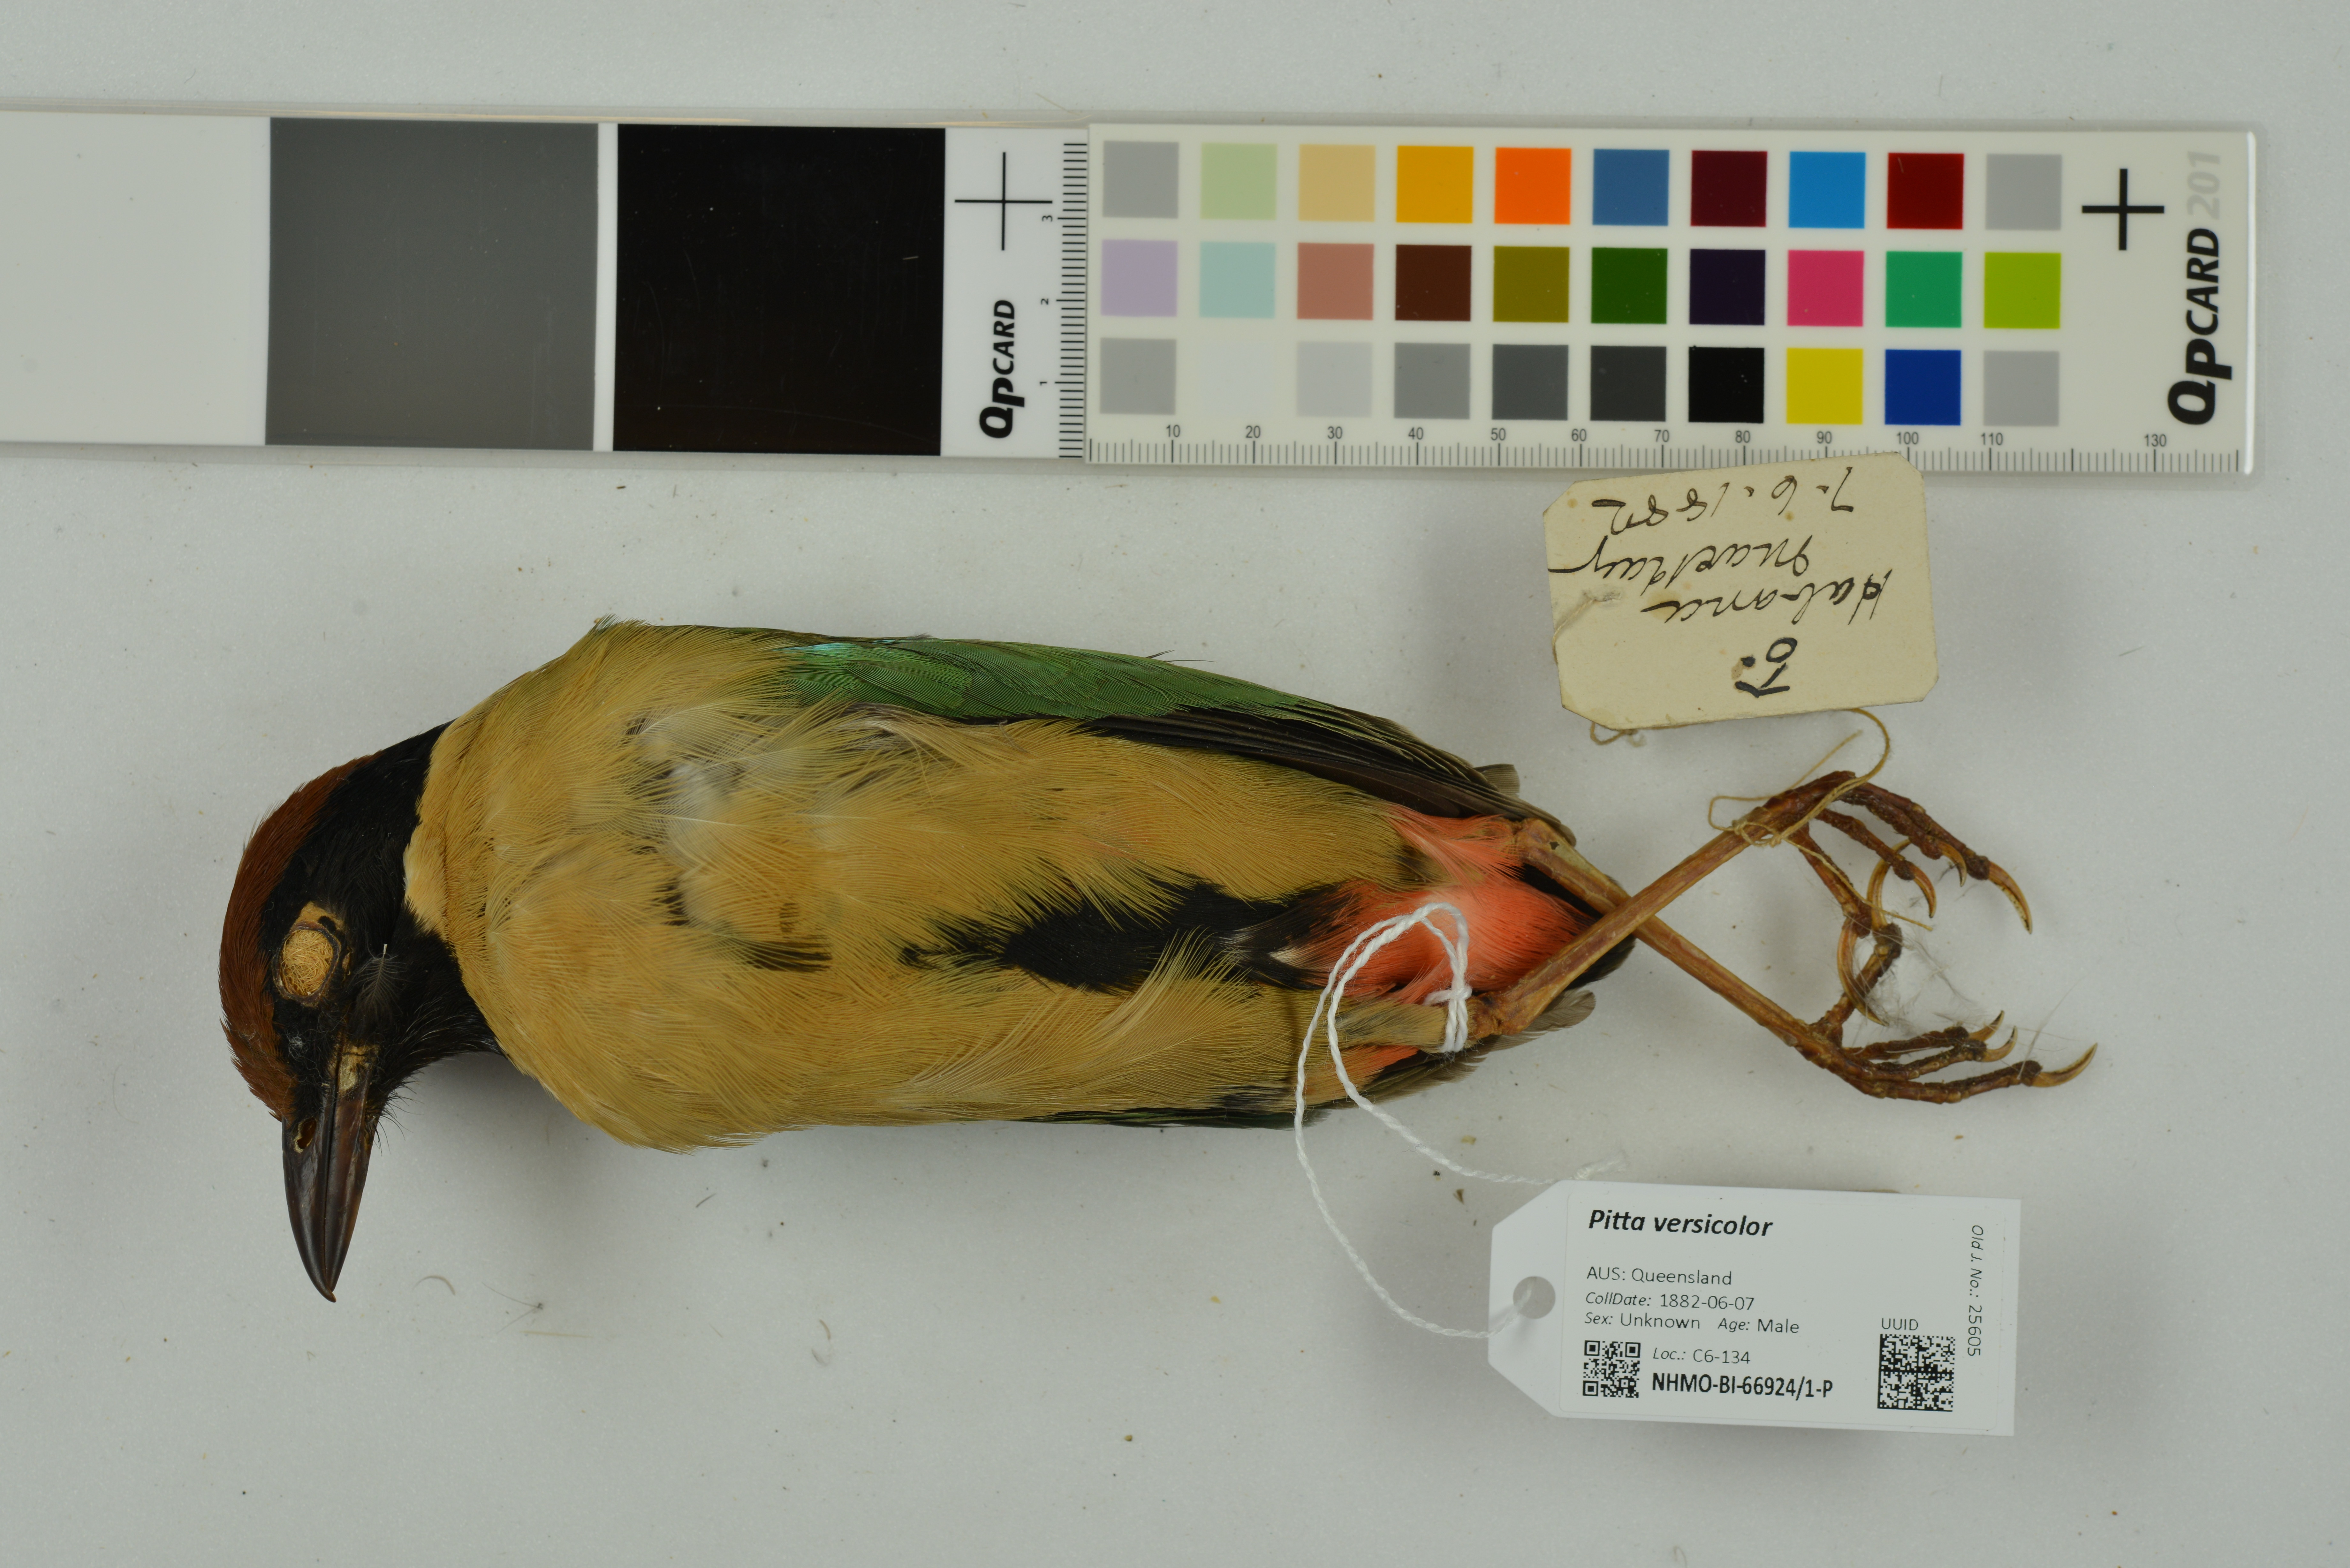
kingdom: Animalia
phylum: Chordata
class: Aves
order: Passeriformes
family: Pittidae
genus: Pitta
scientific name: Pitta versicolor
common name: Noisy pitta
